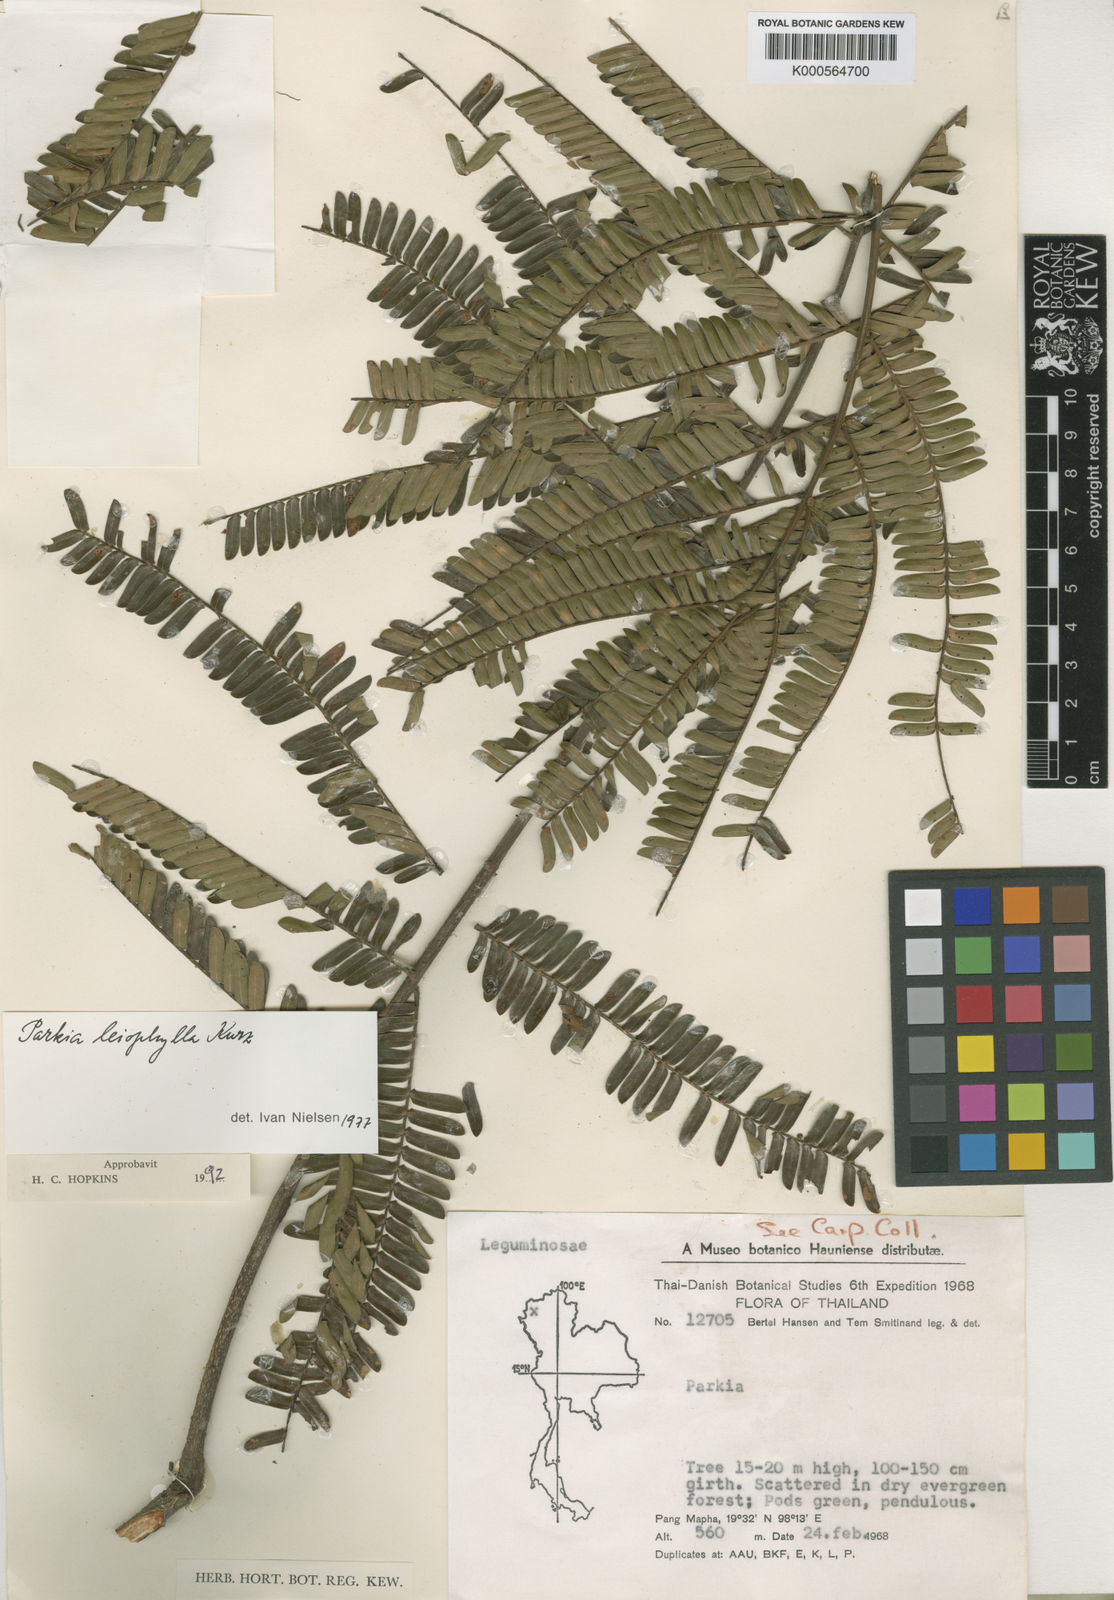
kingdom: Plantae
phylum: Tracheophyta
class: Magnoliopsida
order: Fabales
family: Fabaceae
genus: Parkia
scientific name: Parkia leiophylla
